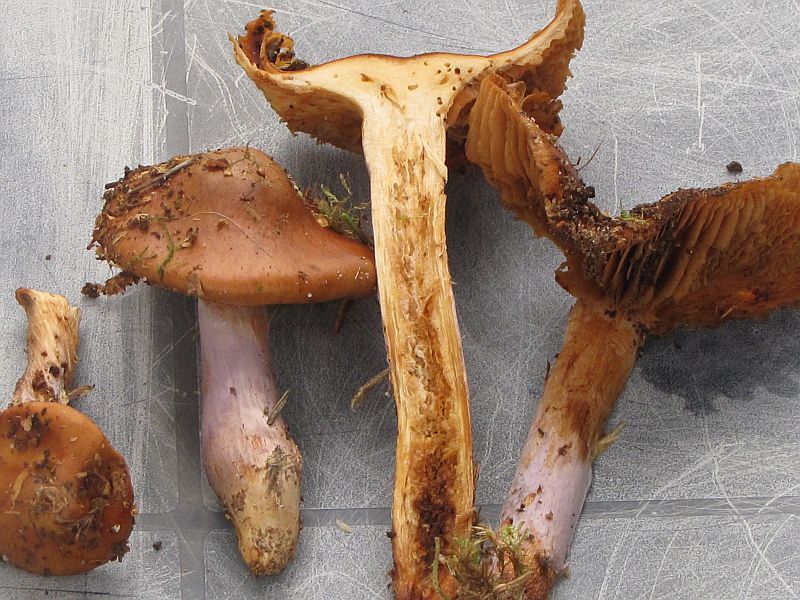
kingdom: Fungi
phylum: Basidiomycota
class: Agaricomycetes
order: Agaricales
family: Cortinariaceae
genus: Cortinarius
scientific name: Cortinarius collinitus
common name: spættet slørhat
